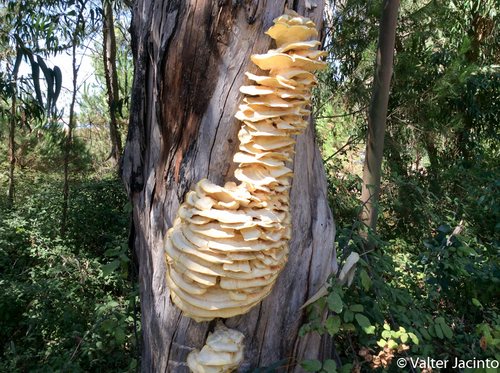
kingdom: Fungi
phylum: Basidiomycota
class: Agaricomycetes
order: Polyporales
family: Laetiporaceae
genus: Laetiporus
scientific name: Laetiporus sulphureus
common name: Chicken of the woods
